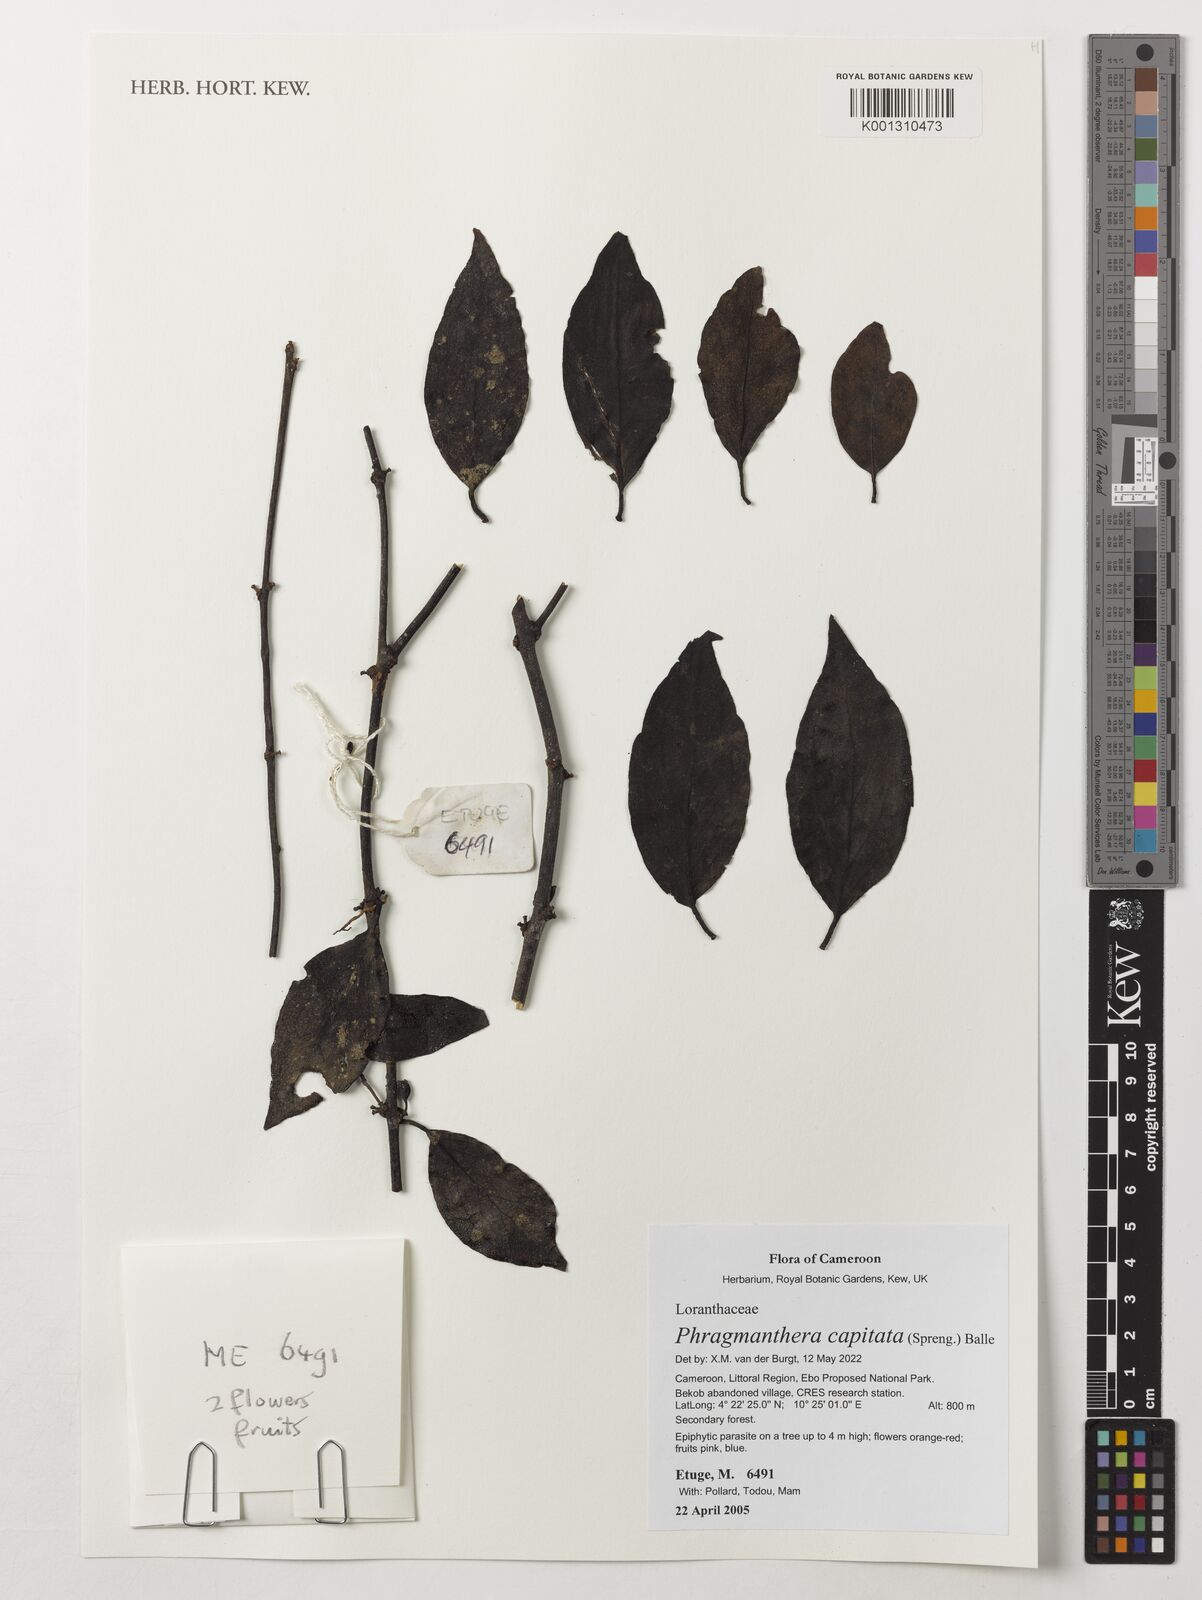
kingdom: Plantae
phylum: Tracheophyta
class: Magnoliopsida
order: Santalales
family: Loranthaceae
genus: Phragmanthera
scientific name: Phragmanthera capitata
